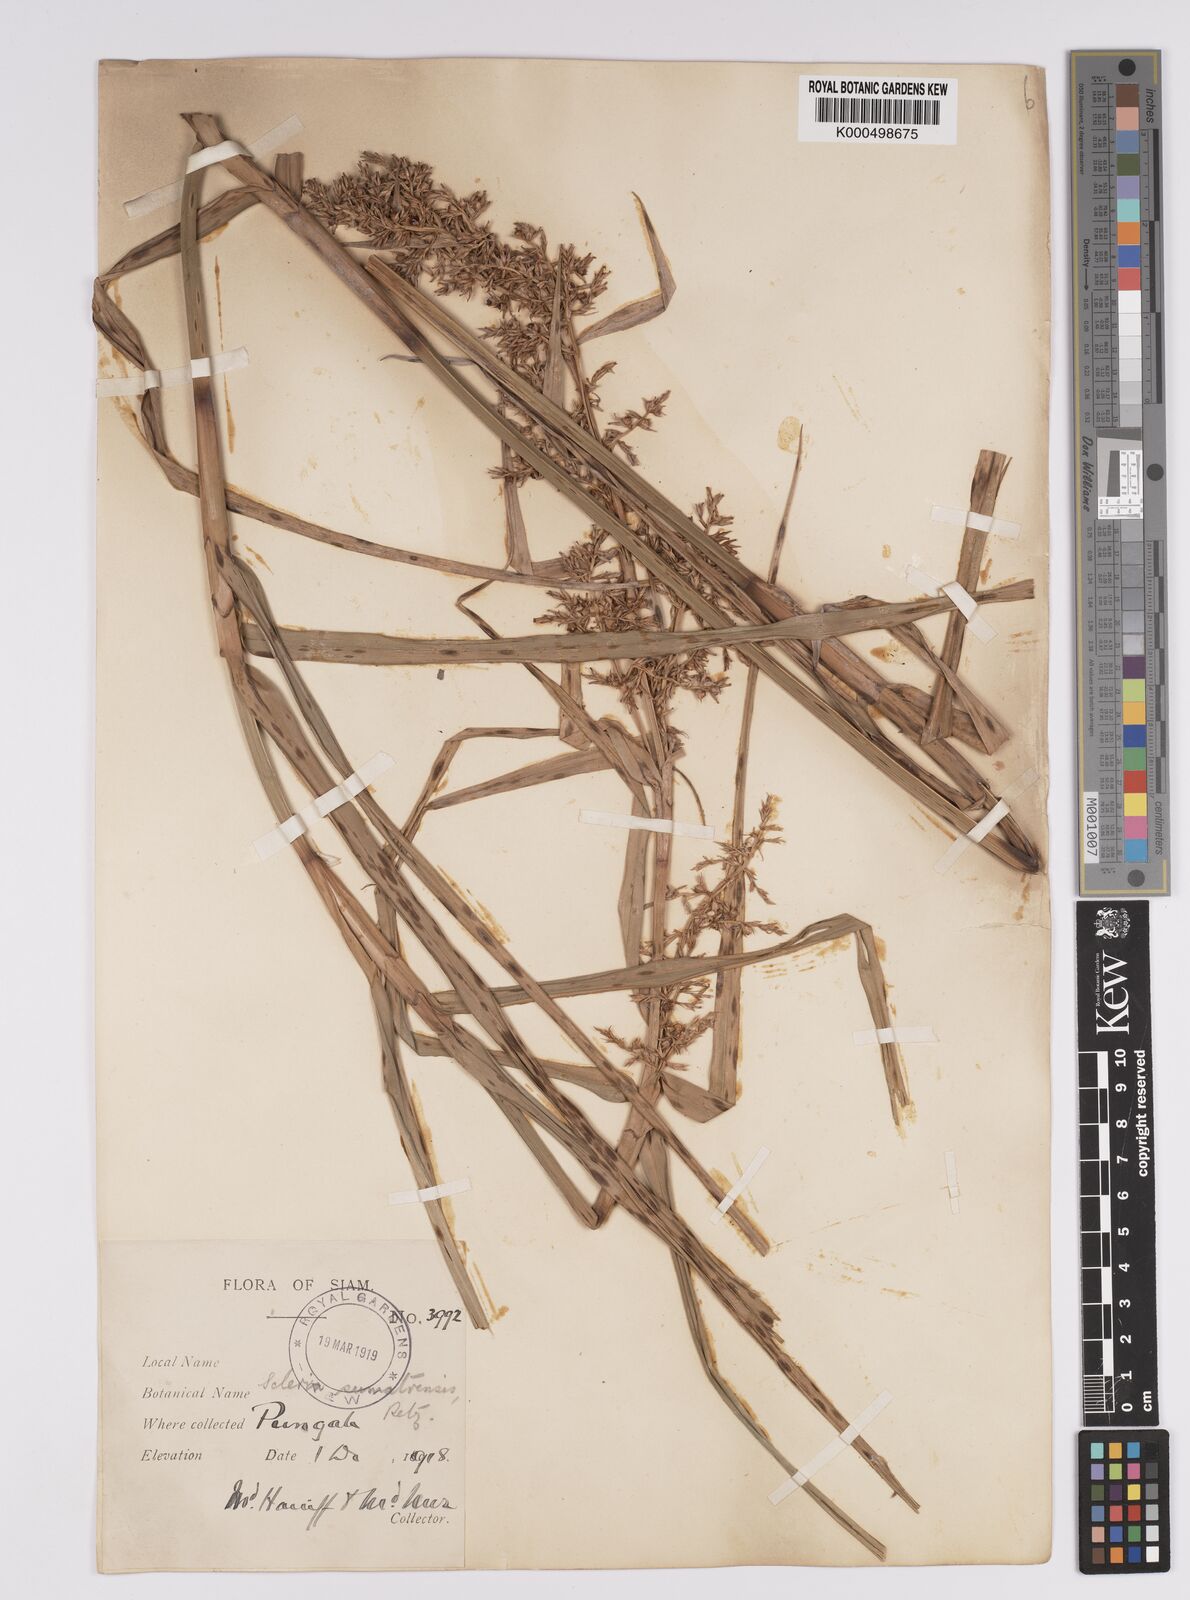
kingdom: Plantae
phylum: Tracheophyta
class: Liliopsida
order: Poales
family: Cyperaceae
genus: Scleria
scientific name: Scleria sumatrensis
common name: Sumatran scleria
